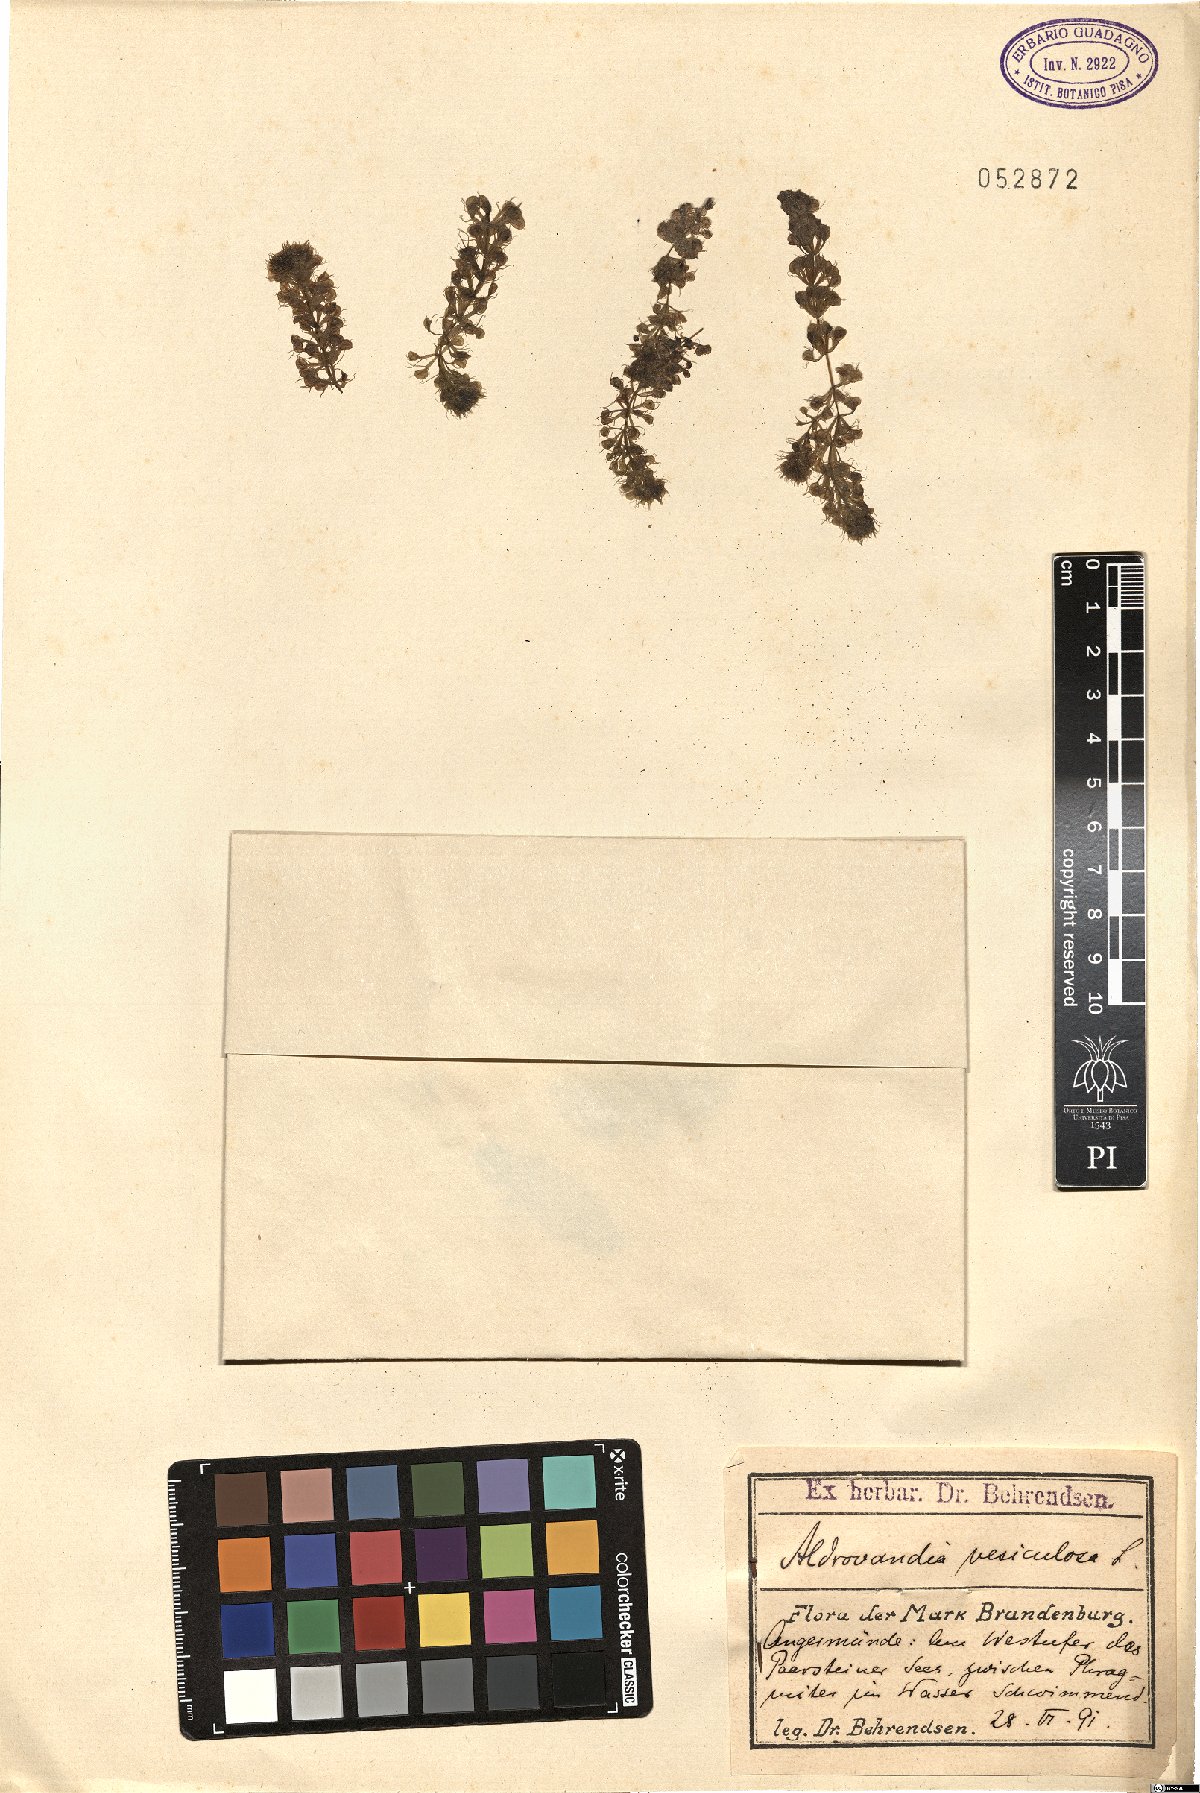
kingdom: Plantae
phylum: Tracheophyta
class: Magnoliopsida
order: Caryophyllales
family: Droseraceae
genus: Aldrovanda
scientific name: Aldrovanda vesiculosa
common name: Waterwheel plant
